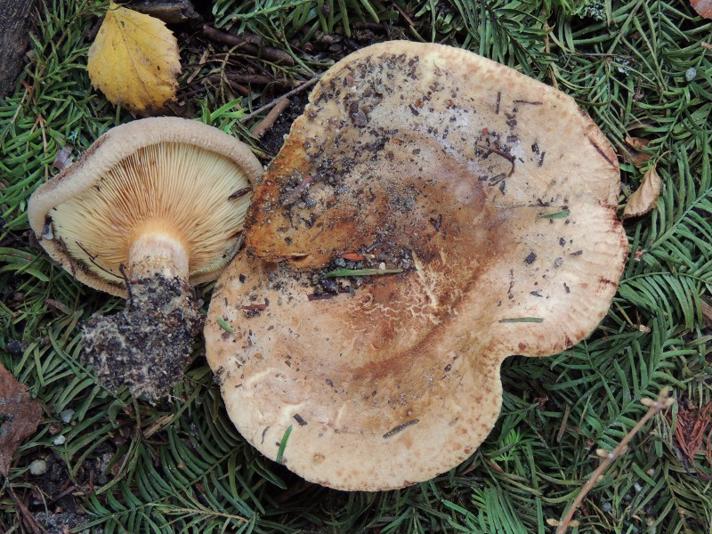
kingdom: Fungi
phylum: Basidiomycota
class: Agaricomycetes
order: Boletales
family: Paxillaceae
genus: Paxillus
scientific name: Paxillus obscurisporus
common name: mahognisporet netbladhat
